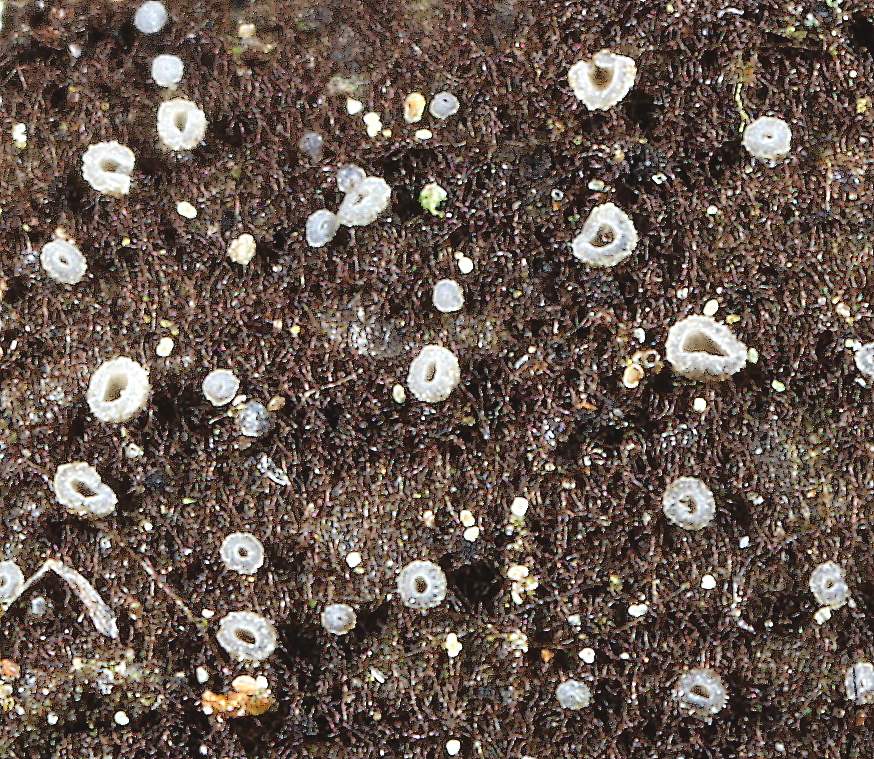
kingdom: Fungi
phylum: Ascomycota
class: Leotiomycetes
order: Helotiales
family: Mollisiaceae
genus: Mollisia
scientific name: Mollisia
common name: gråskive
